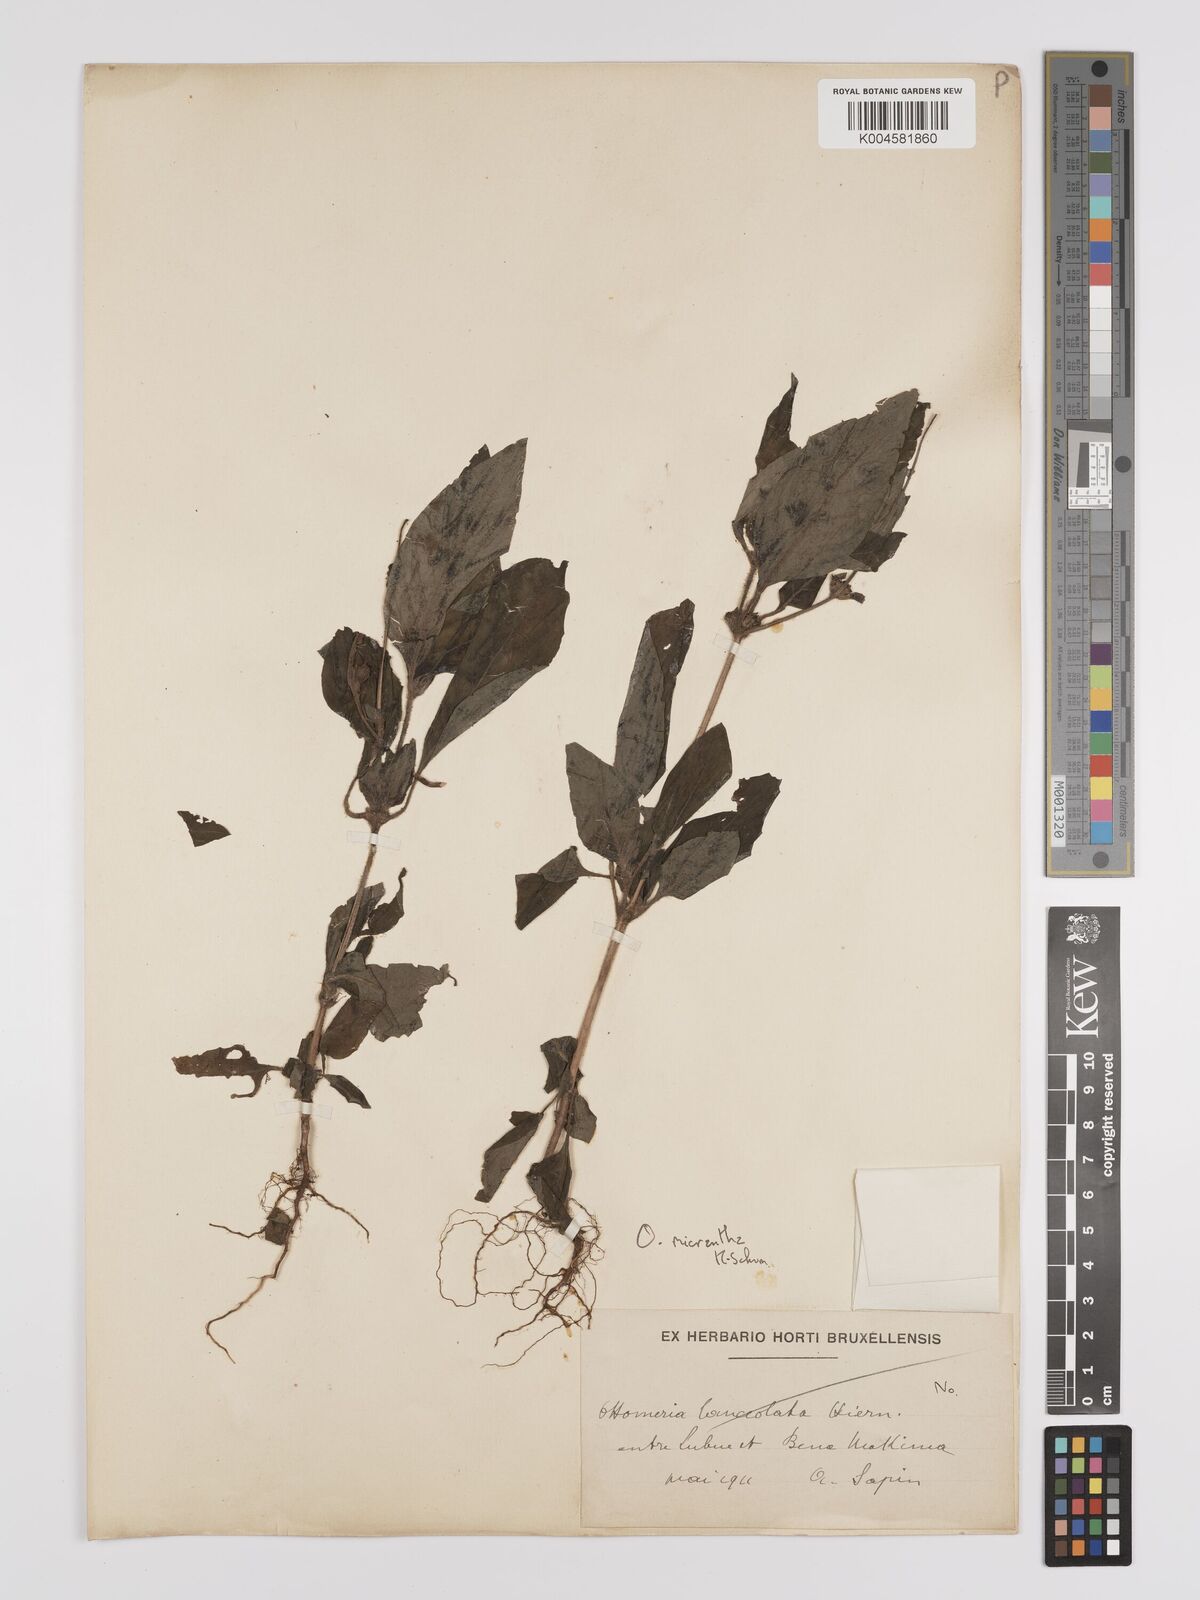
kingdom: Plantae
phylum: Tracheophyta
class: Magnoliopsida
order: Gentianales
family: Rubiaceae
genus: Otomeria
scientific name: Otomeria micrantha
